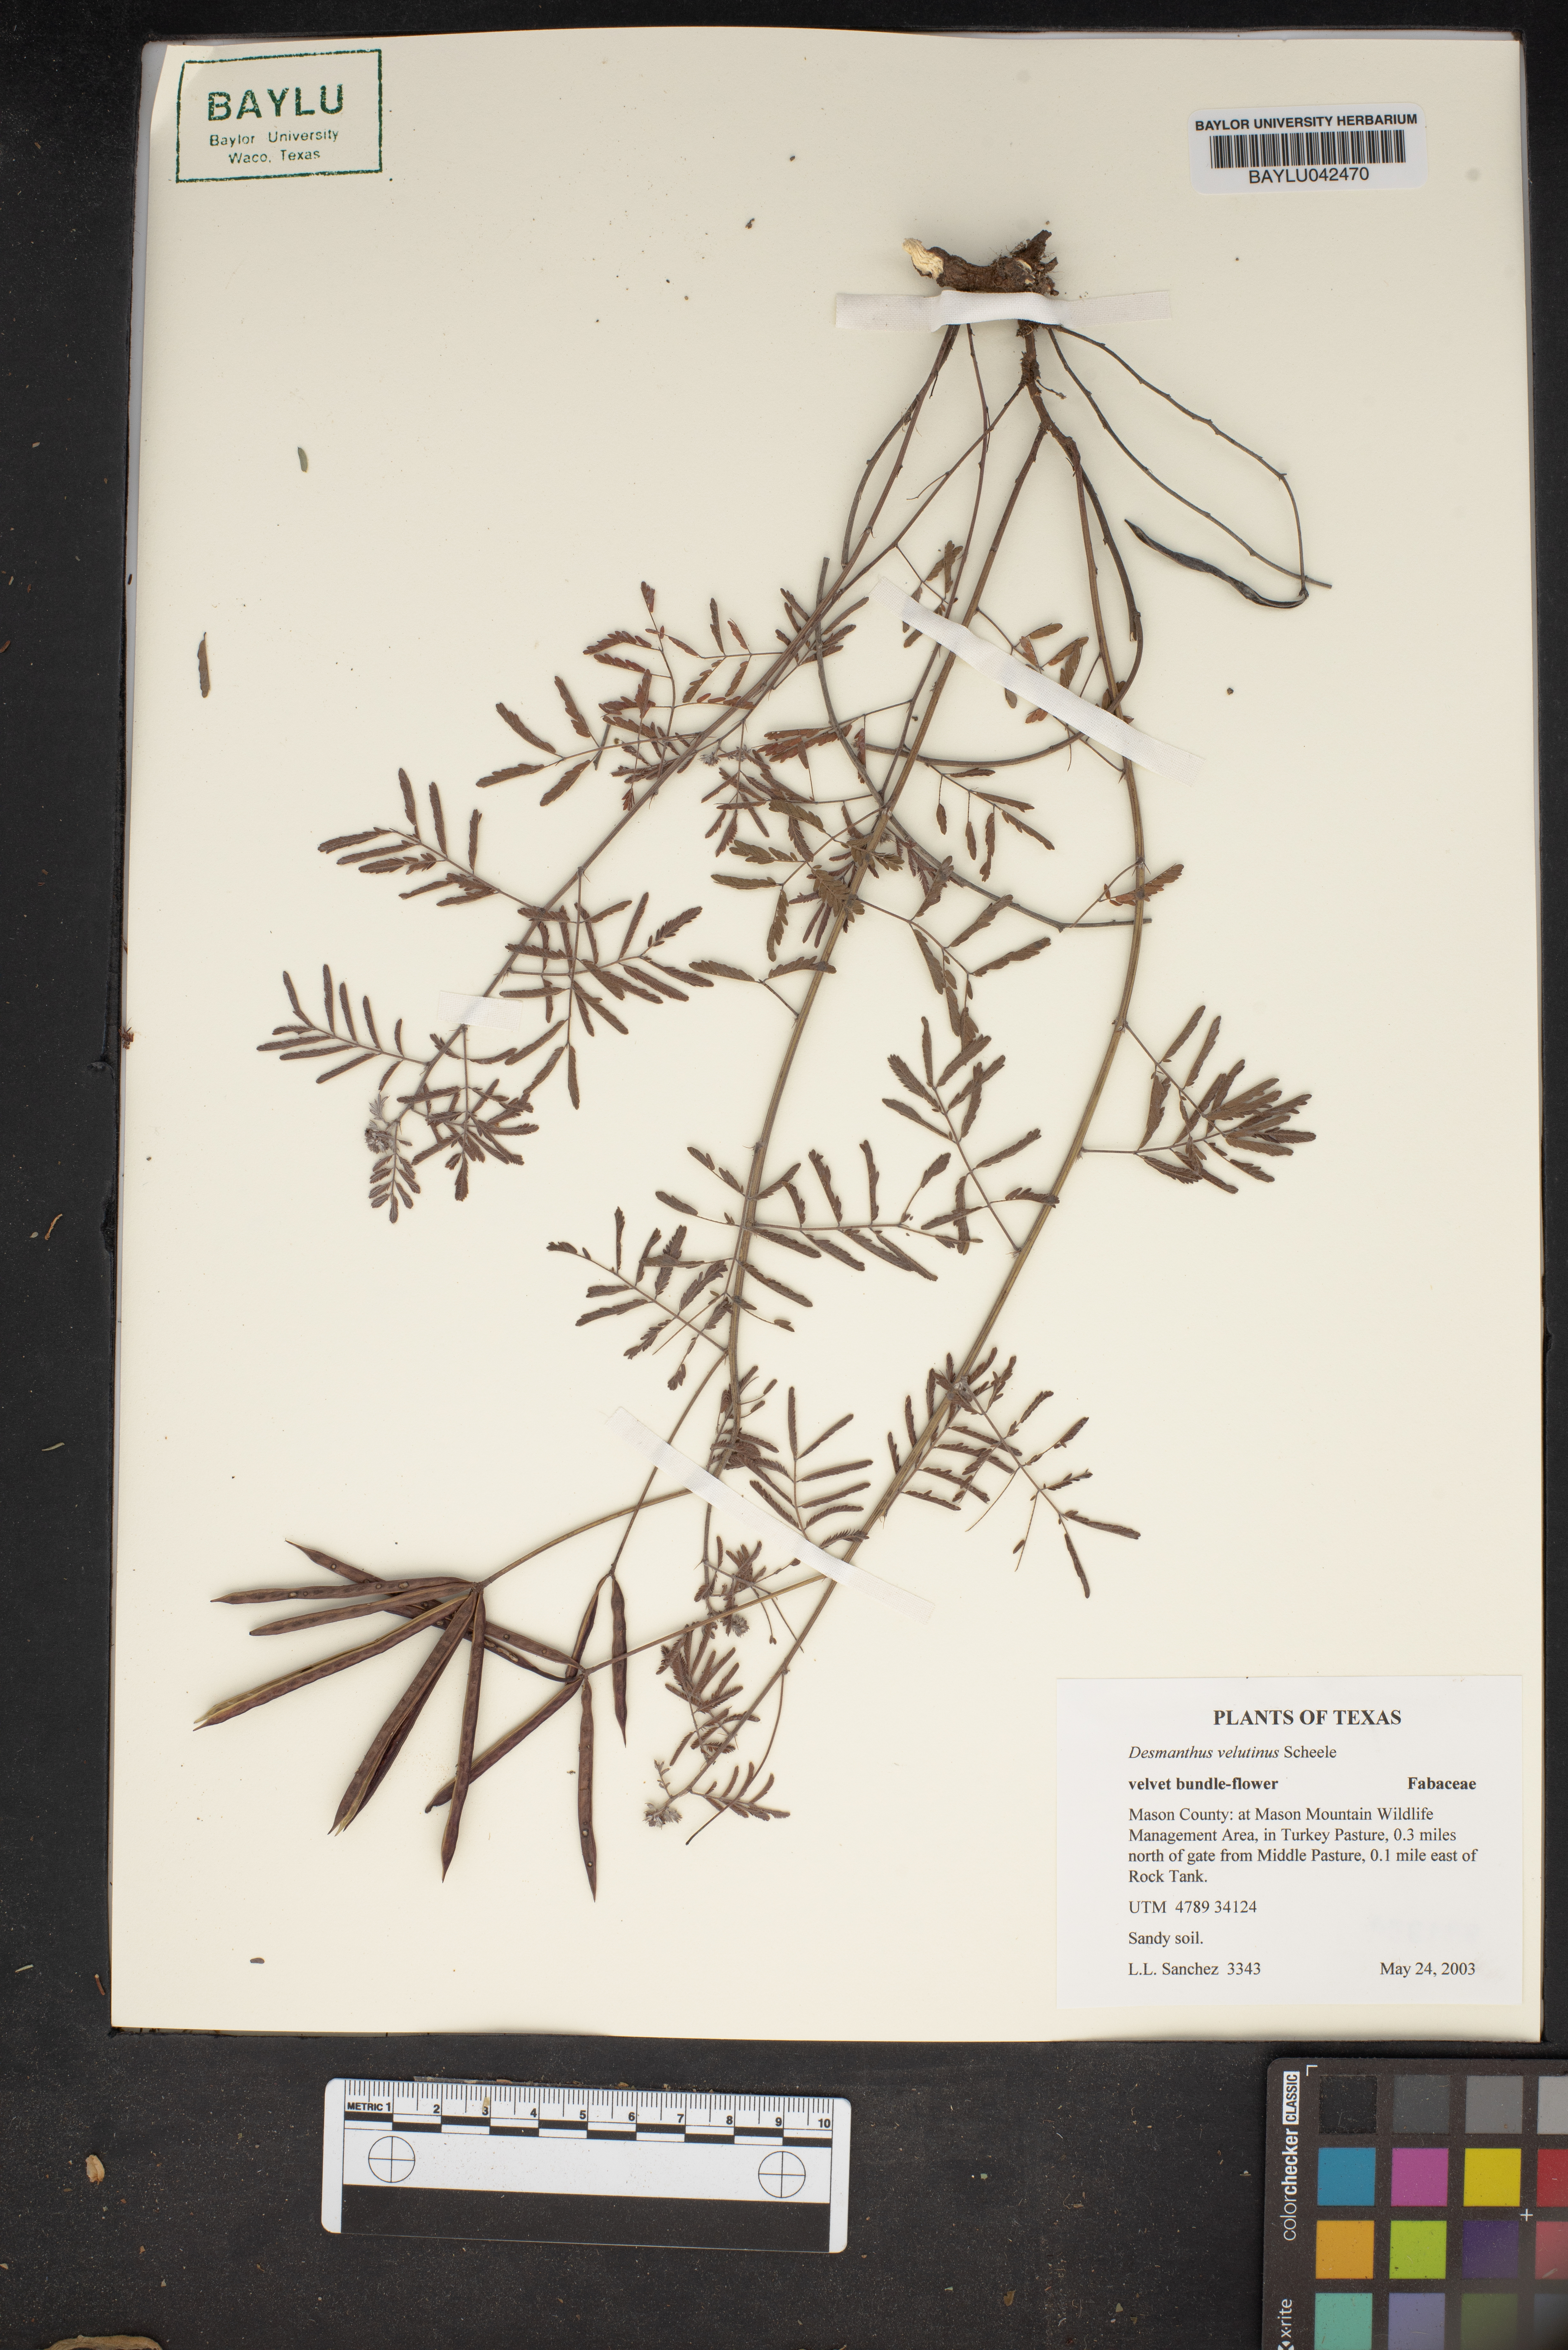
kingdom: Plantae
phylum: Tracheophyta
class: Magnoliopsida
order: Fabales
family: Fabaceae
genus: Desmanthus
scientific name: Desmanthus velutinus
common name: Velvet bundle-flower
